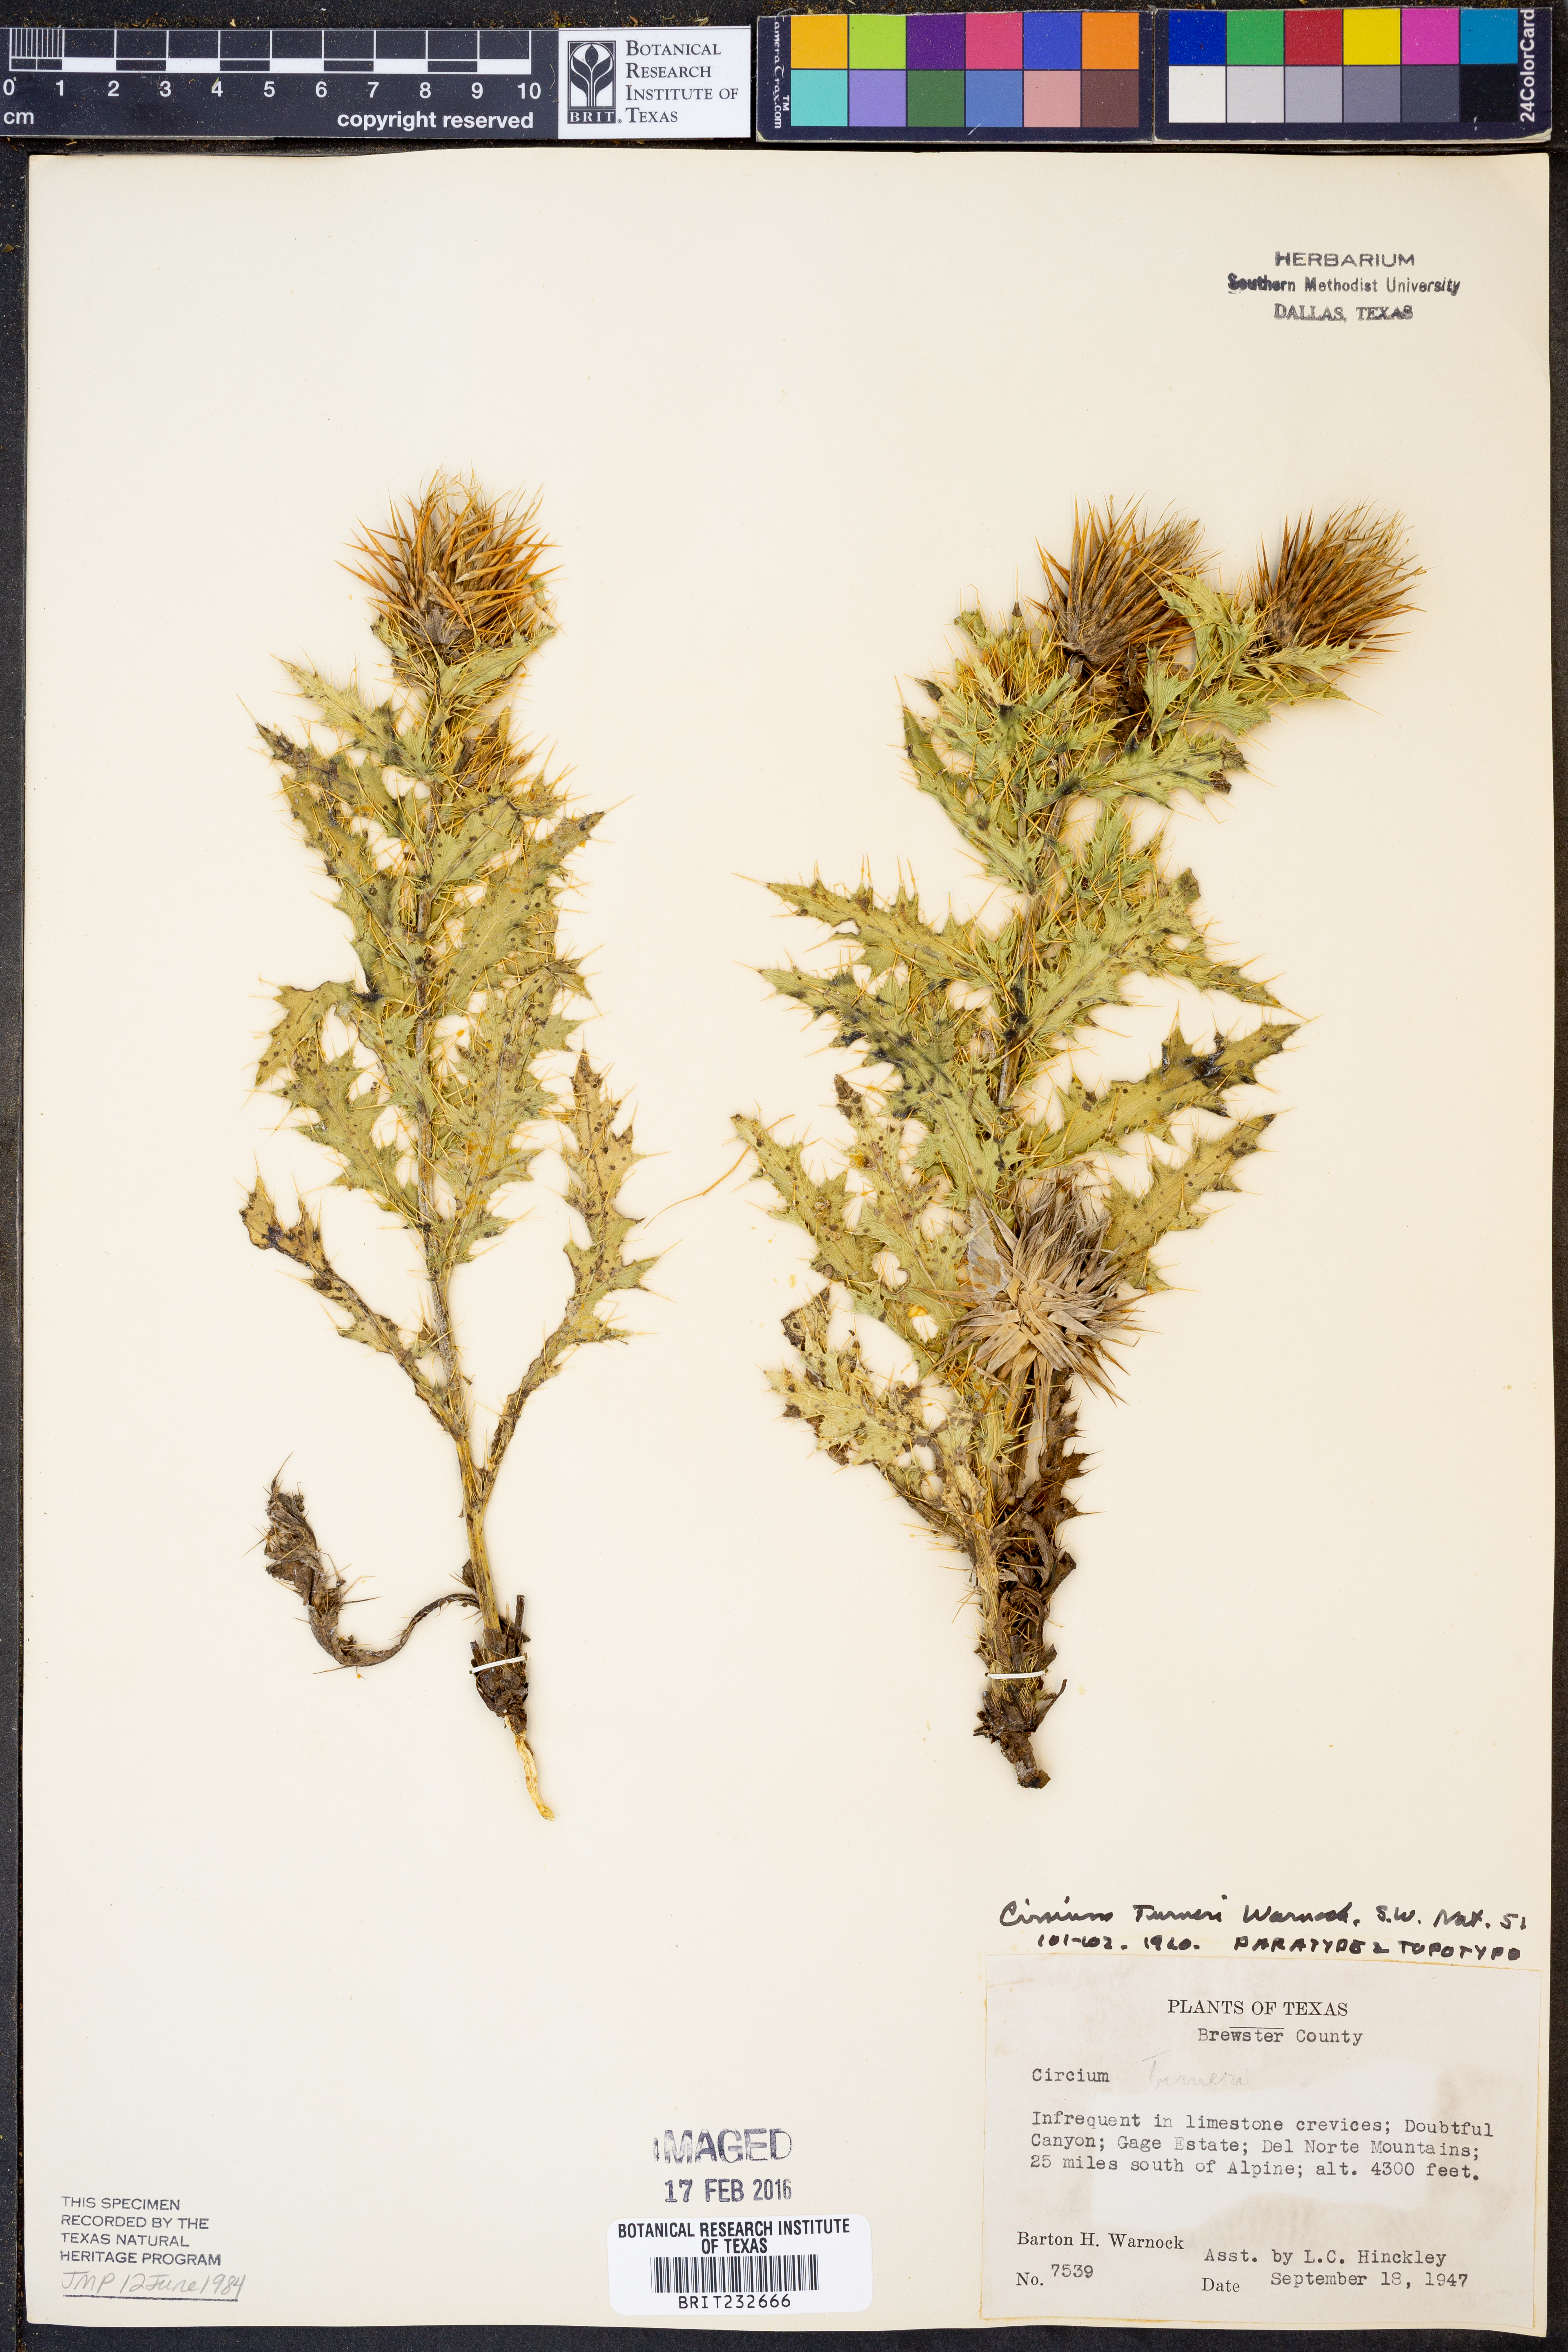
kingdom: Plantae
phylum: Tracheophyta
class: Magnoliopsida
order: Asterales
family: Asteraceae
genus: Cirsium
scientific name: Cirsium turneri
